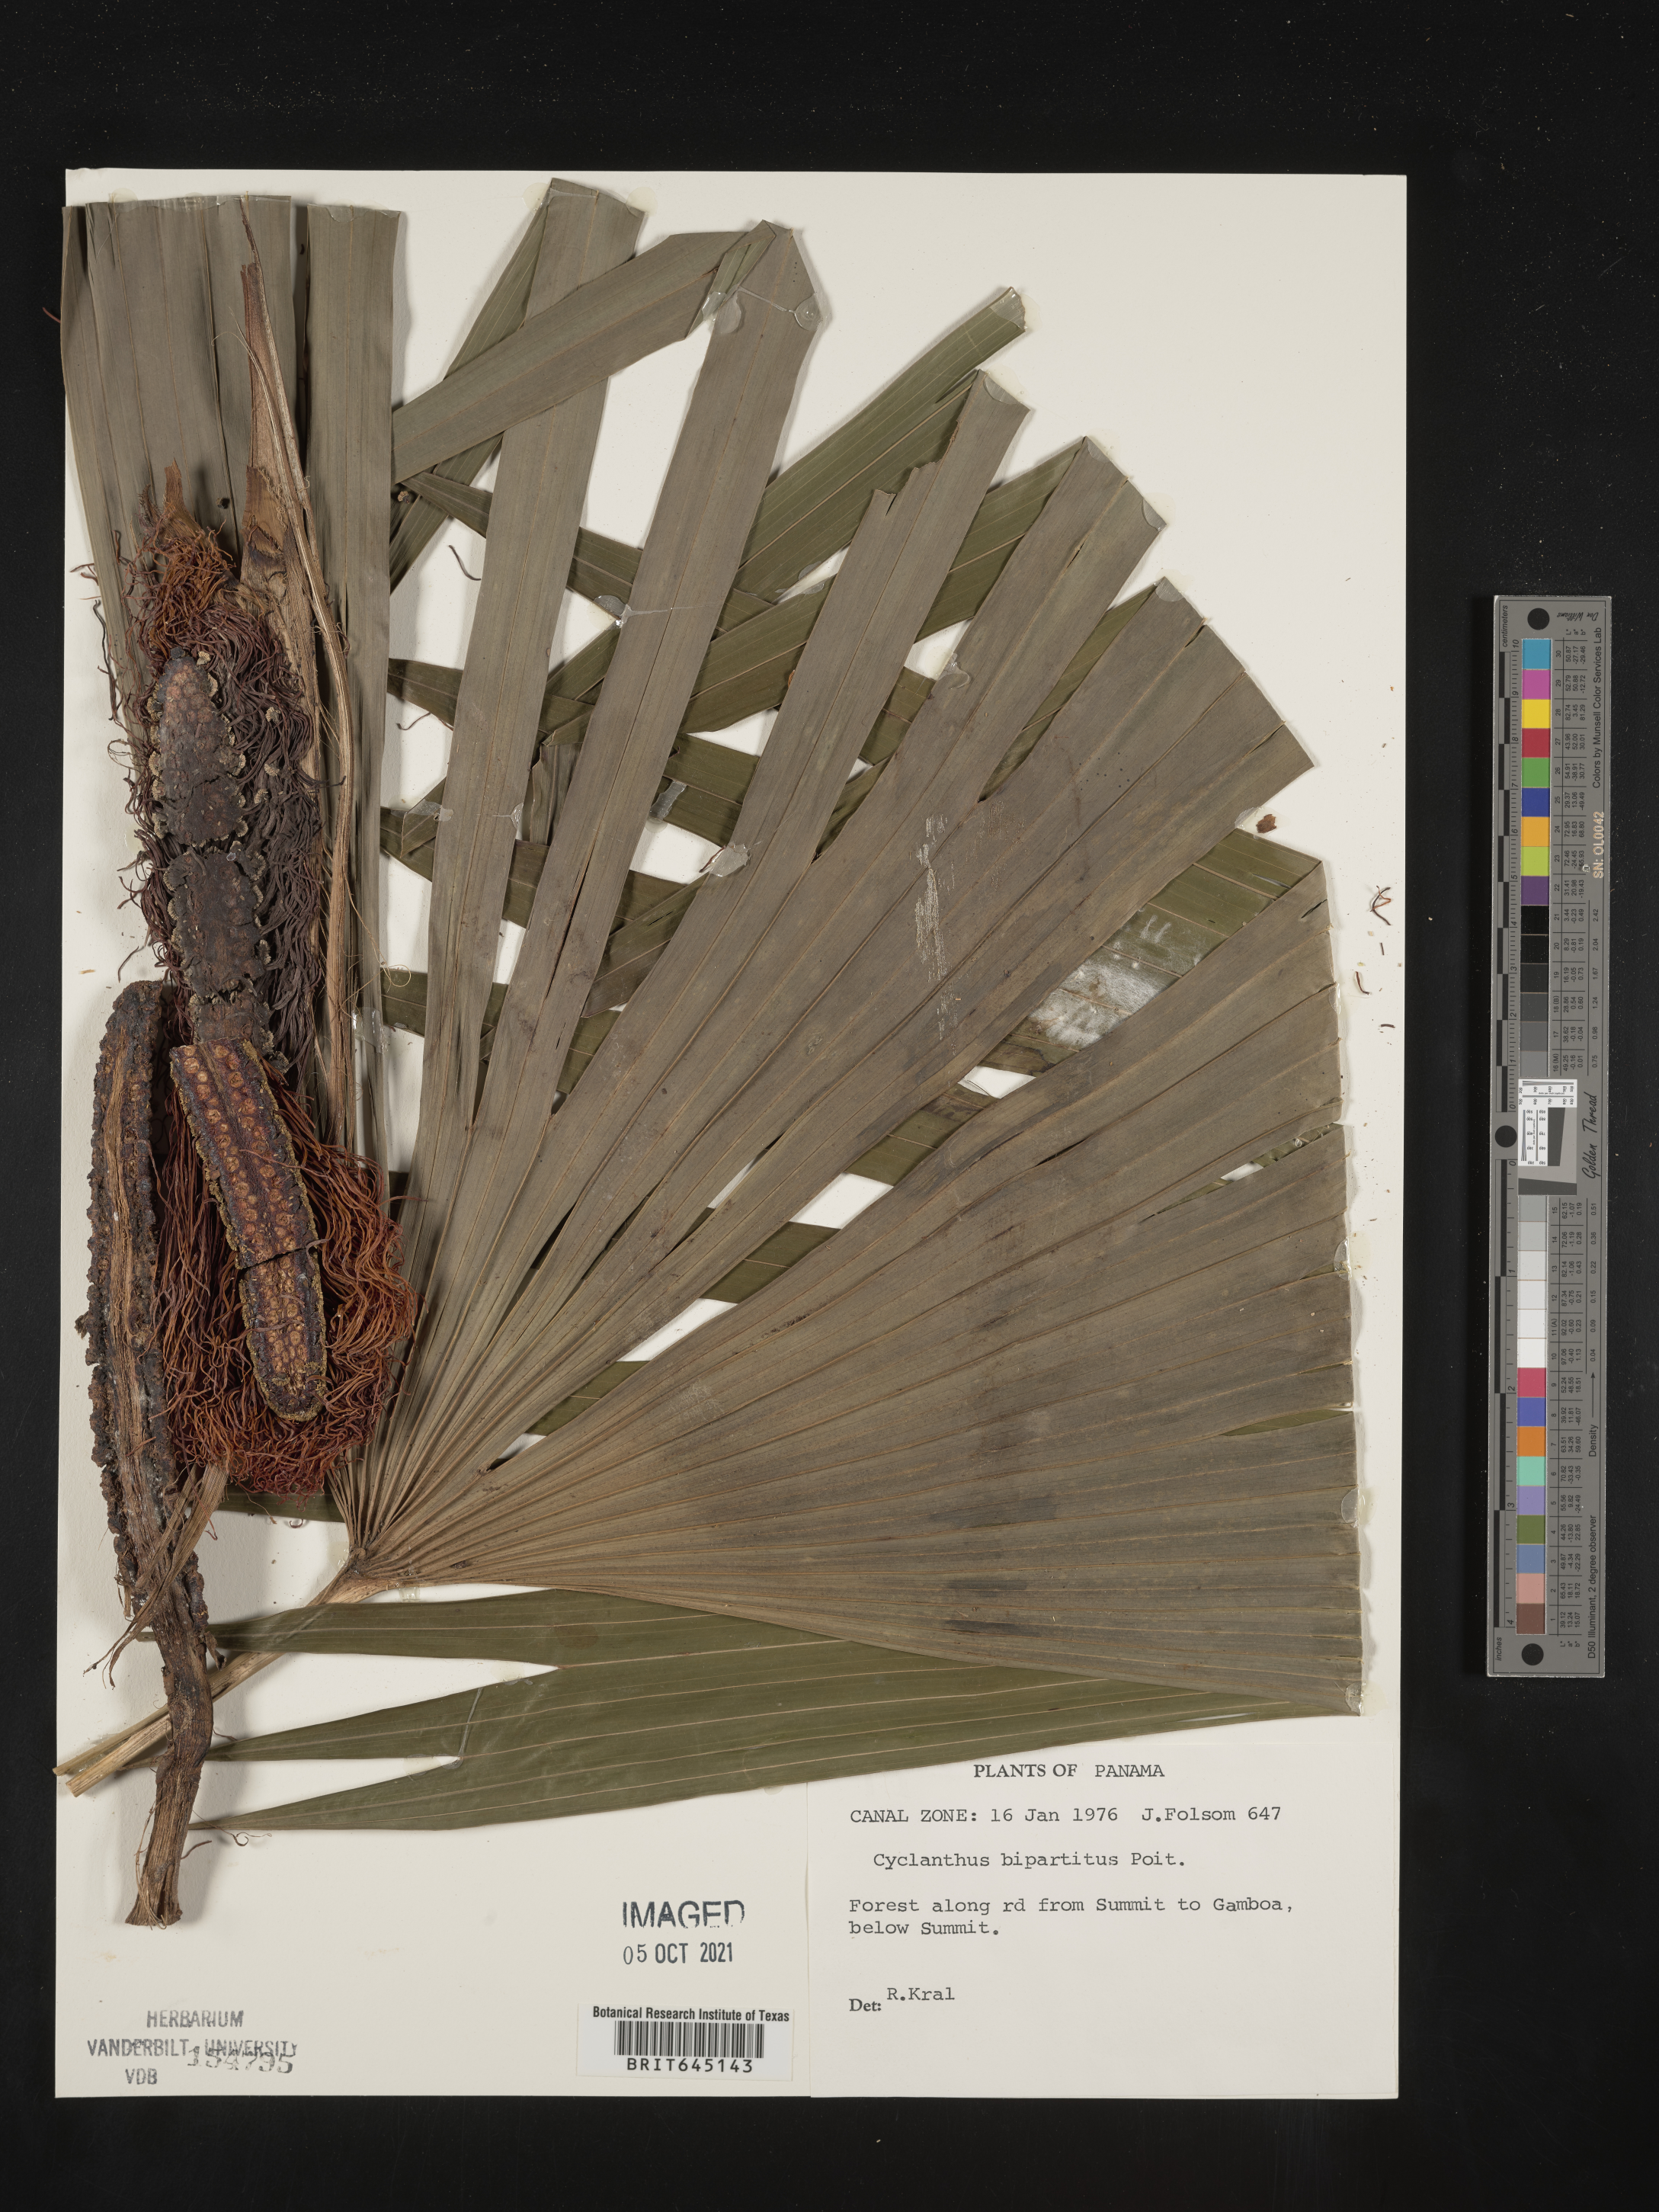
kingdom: Plantae
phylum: Tracheophyta
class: Liliopsida
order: Pandanales
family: Cyclanthaceae
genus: Cyclanthus
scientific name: Cyclanthus bipartitus
